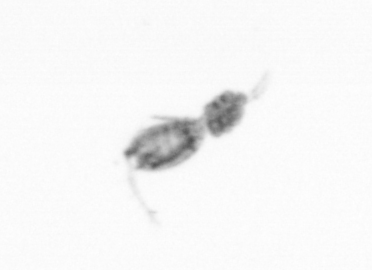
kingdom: Animalia
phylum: Arthropoda
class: Copepoda
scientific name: Copepoda
